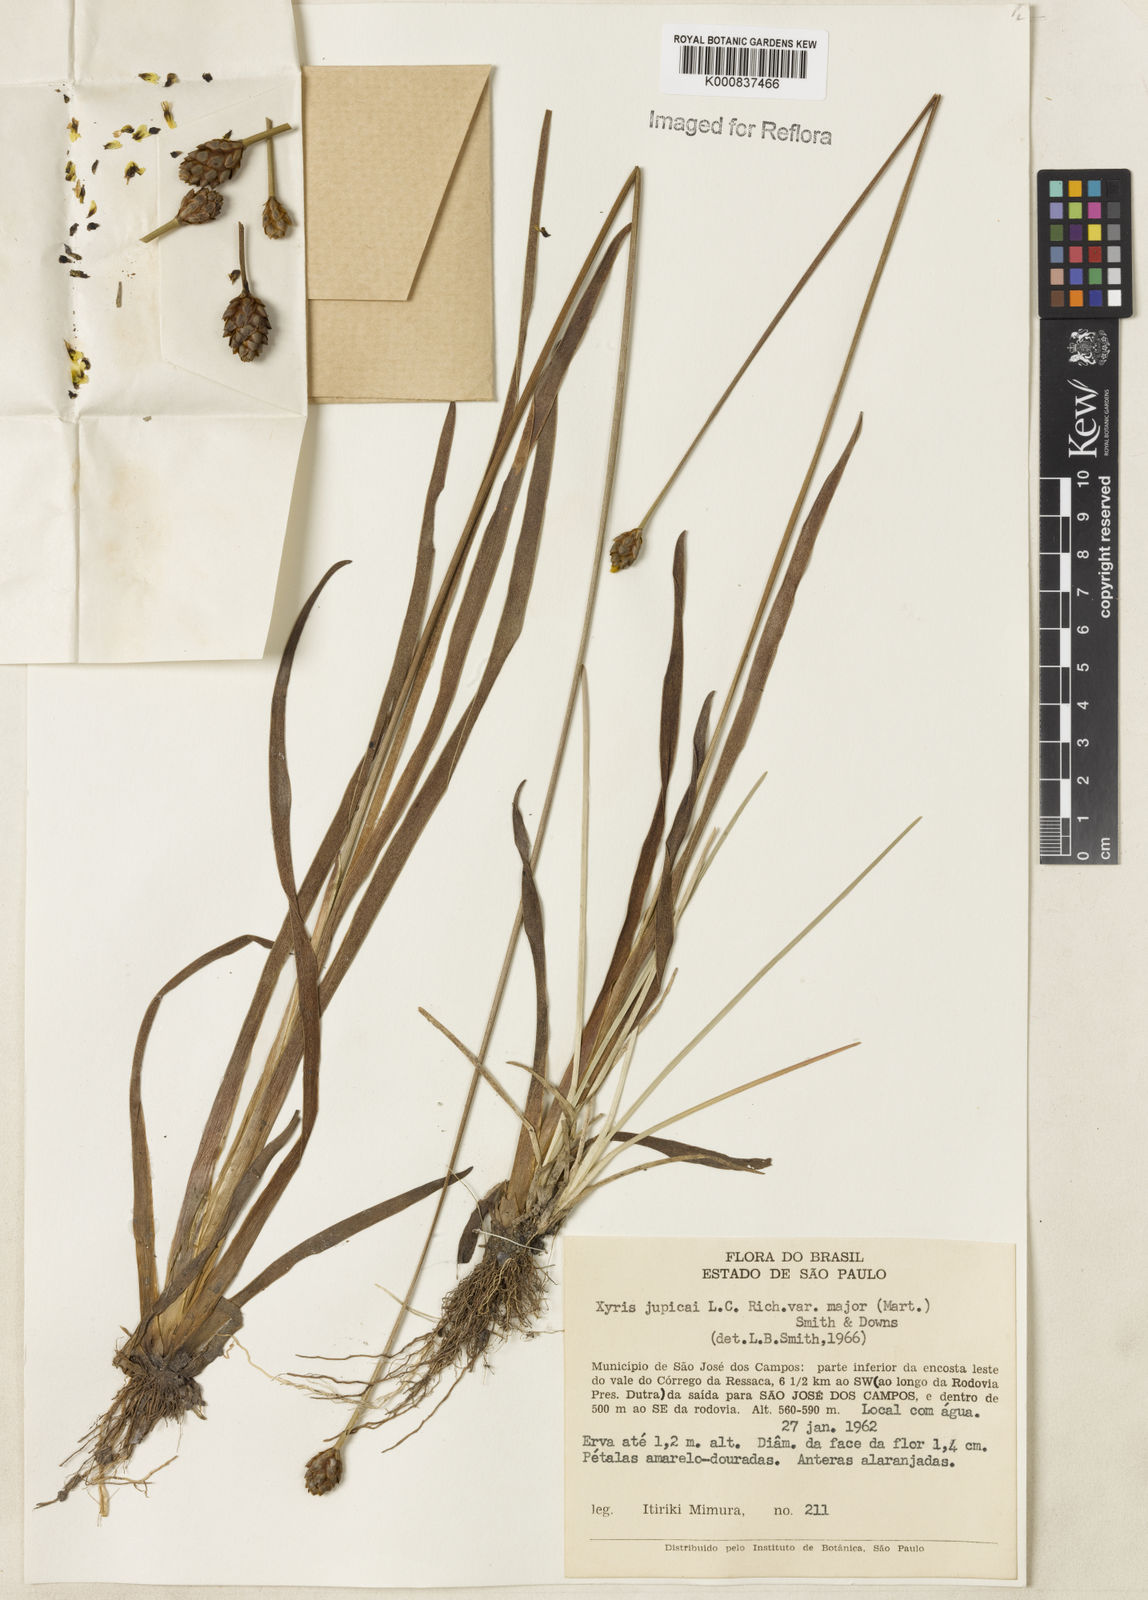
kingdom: Plantae
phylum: Tracheophyta
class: Liliopsida
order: Poales
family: Xyridaceae
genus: Xyris
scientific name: Xyris laxifolia
